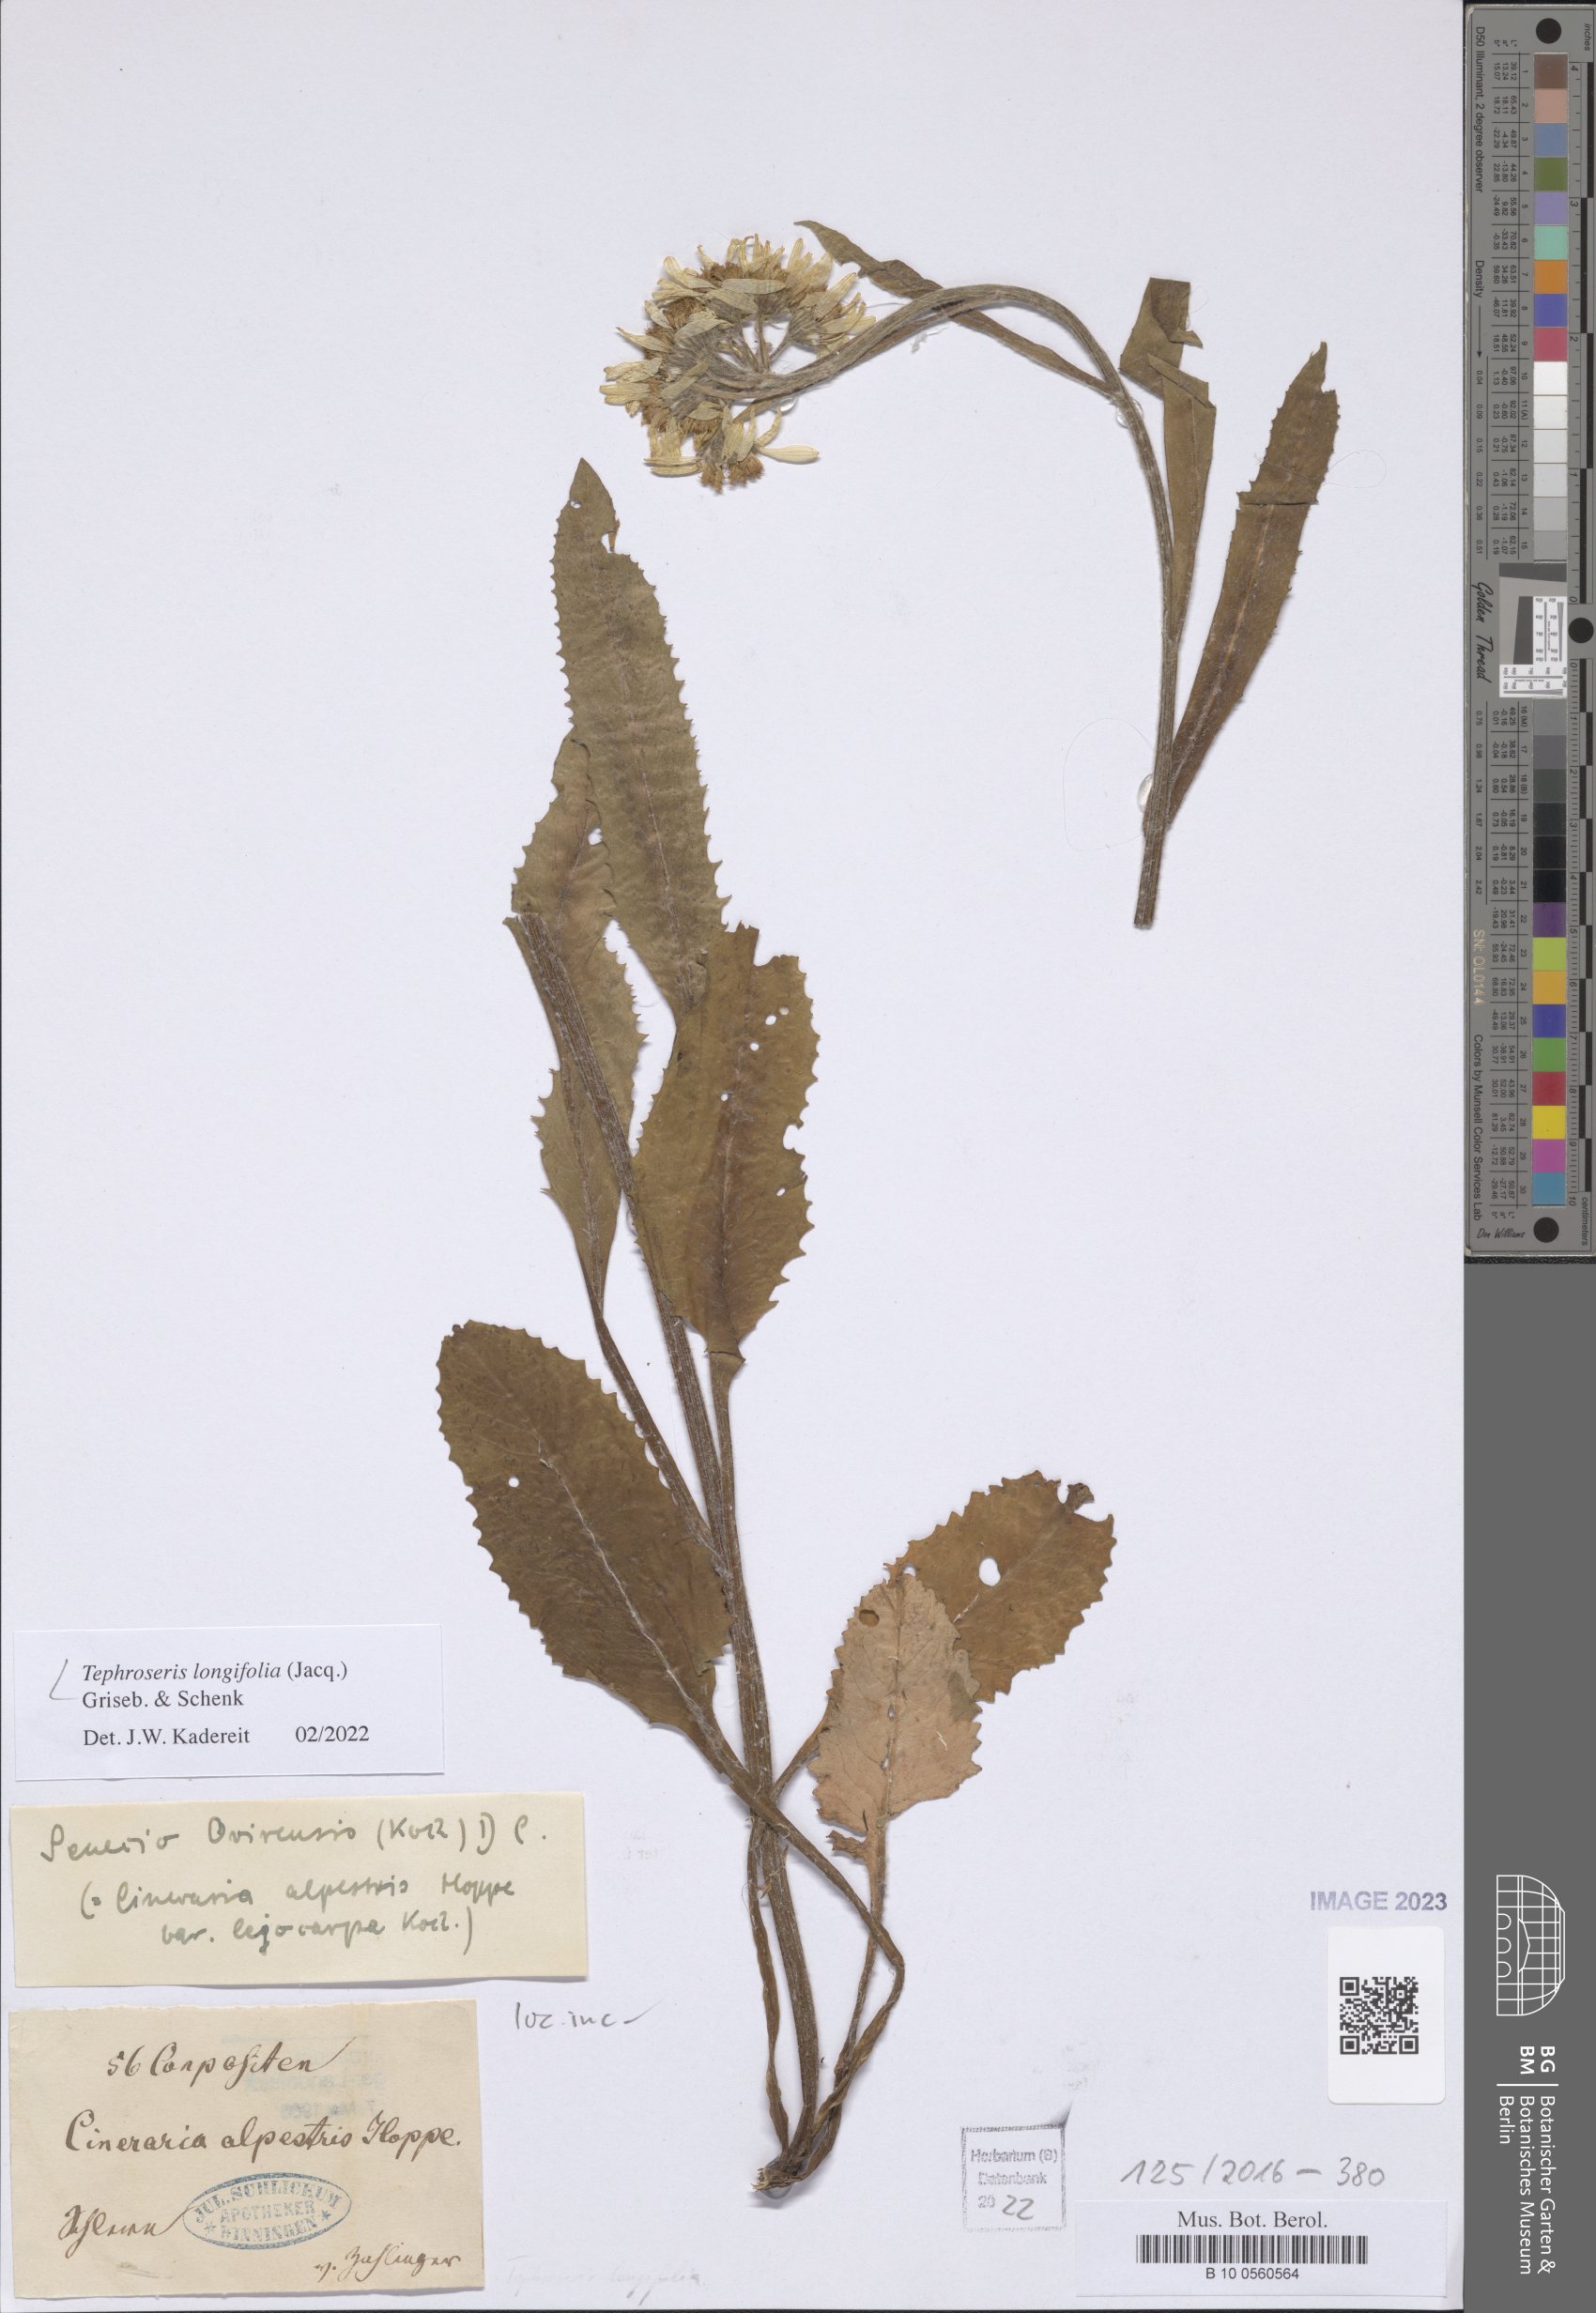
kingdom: Plantae
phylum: Tracheophyta
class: Magnoliopsida
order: Asterales
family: Asteraceae
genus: Tephroseris
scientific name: Tephroseris longifolia
